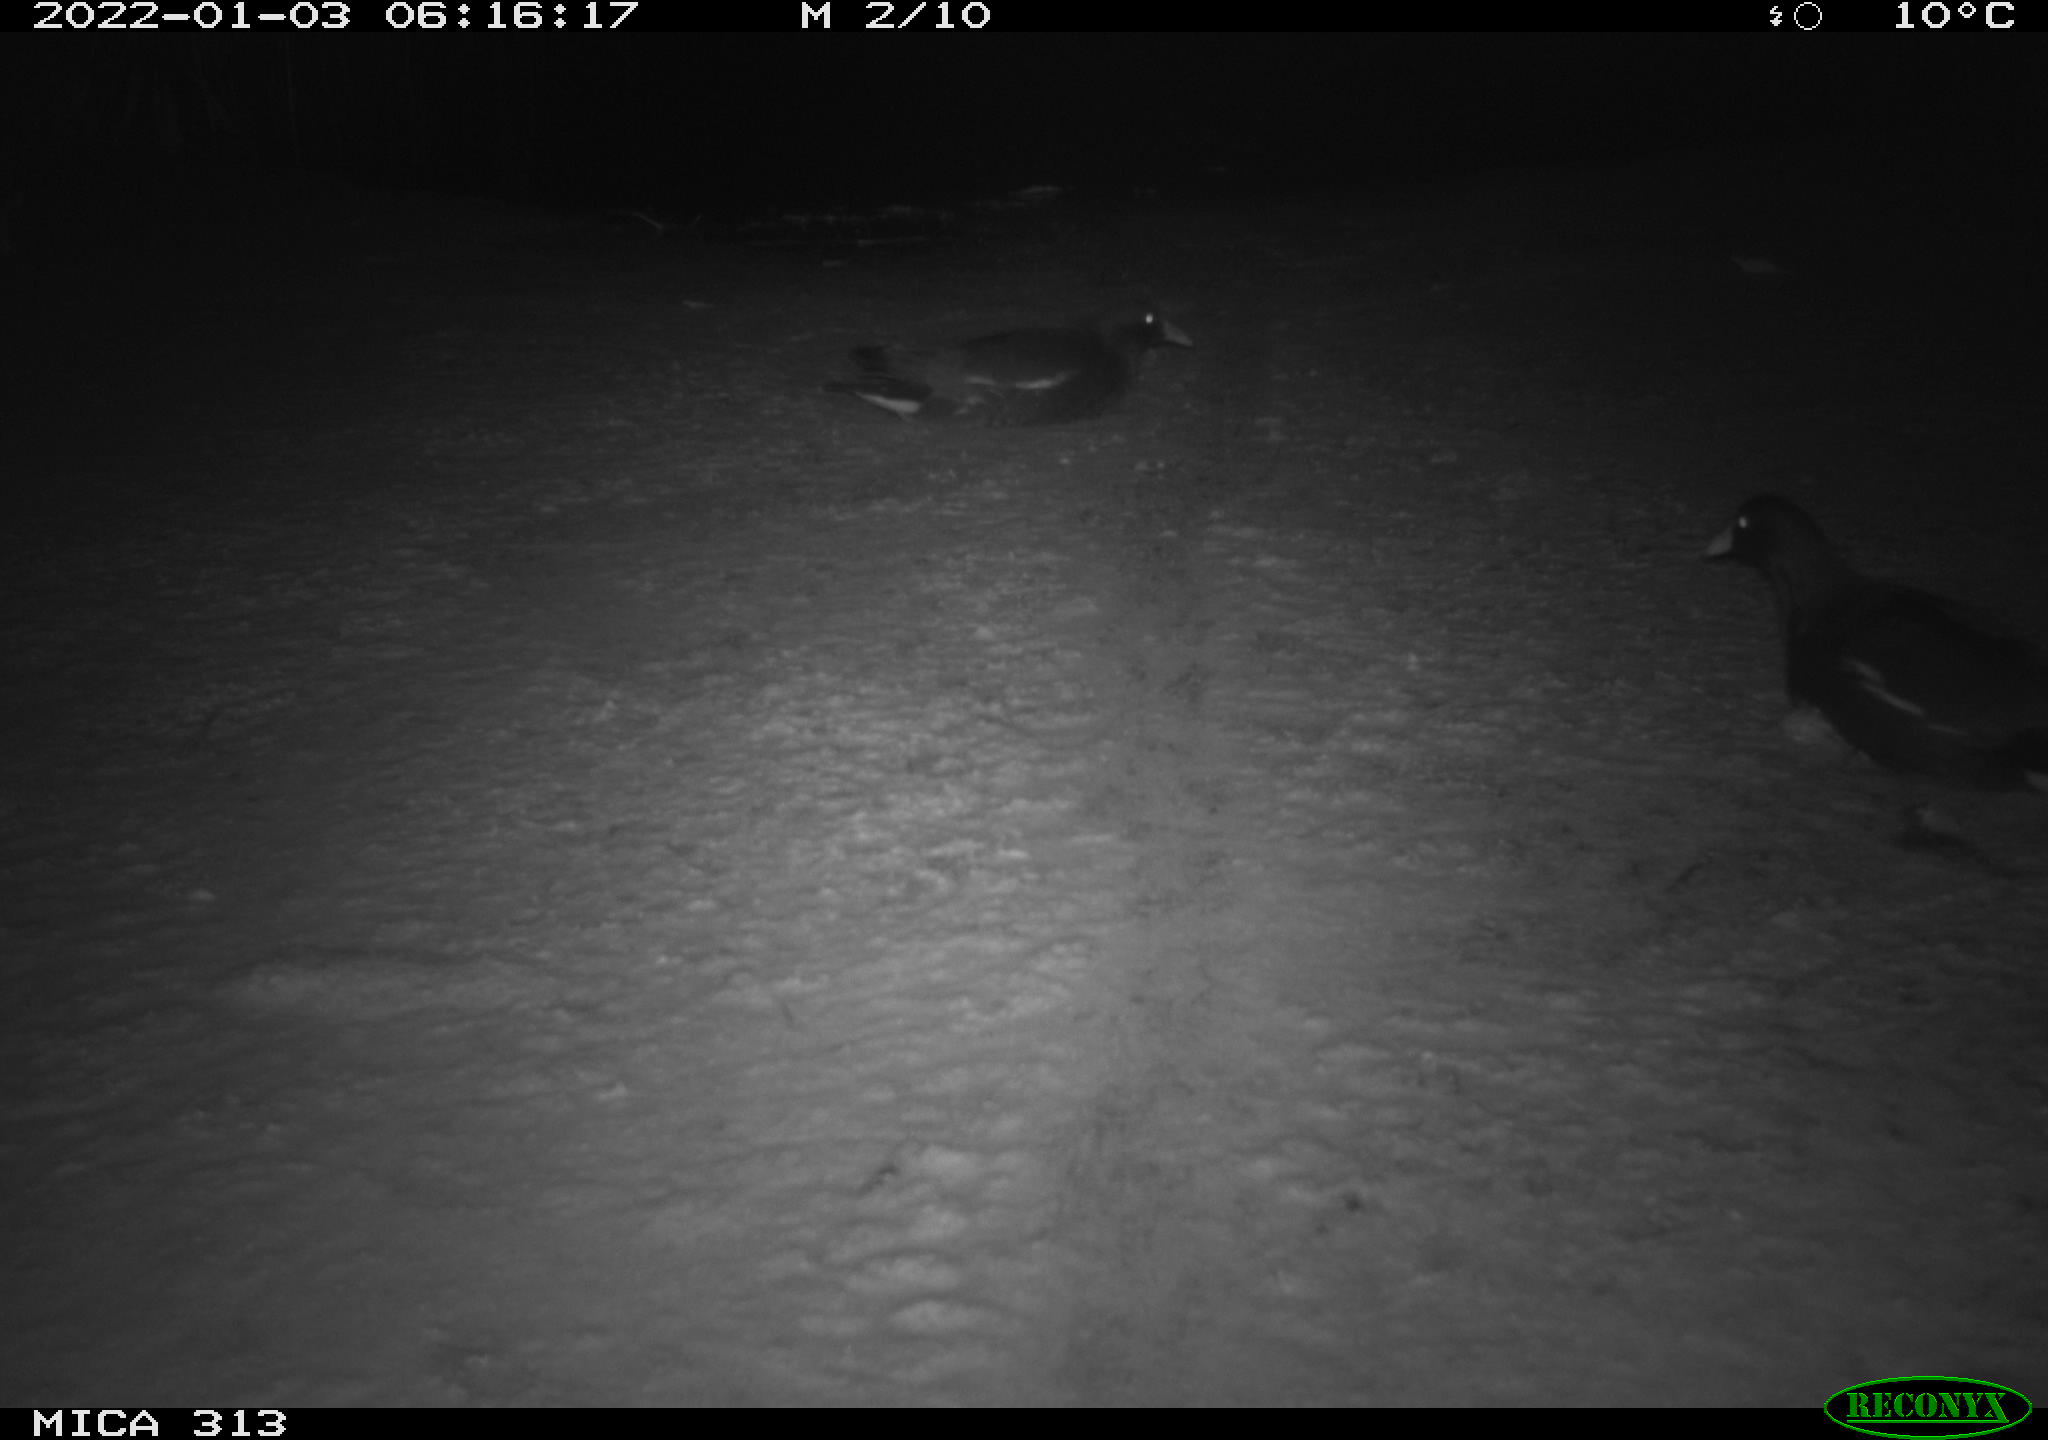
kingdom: Animalia
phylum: Chordata
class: Aves
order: Gruiformes
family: Rallidae
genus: Gallinula
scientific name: Gallinula chloropus
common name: Common moorhen
